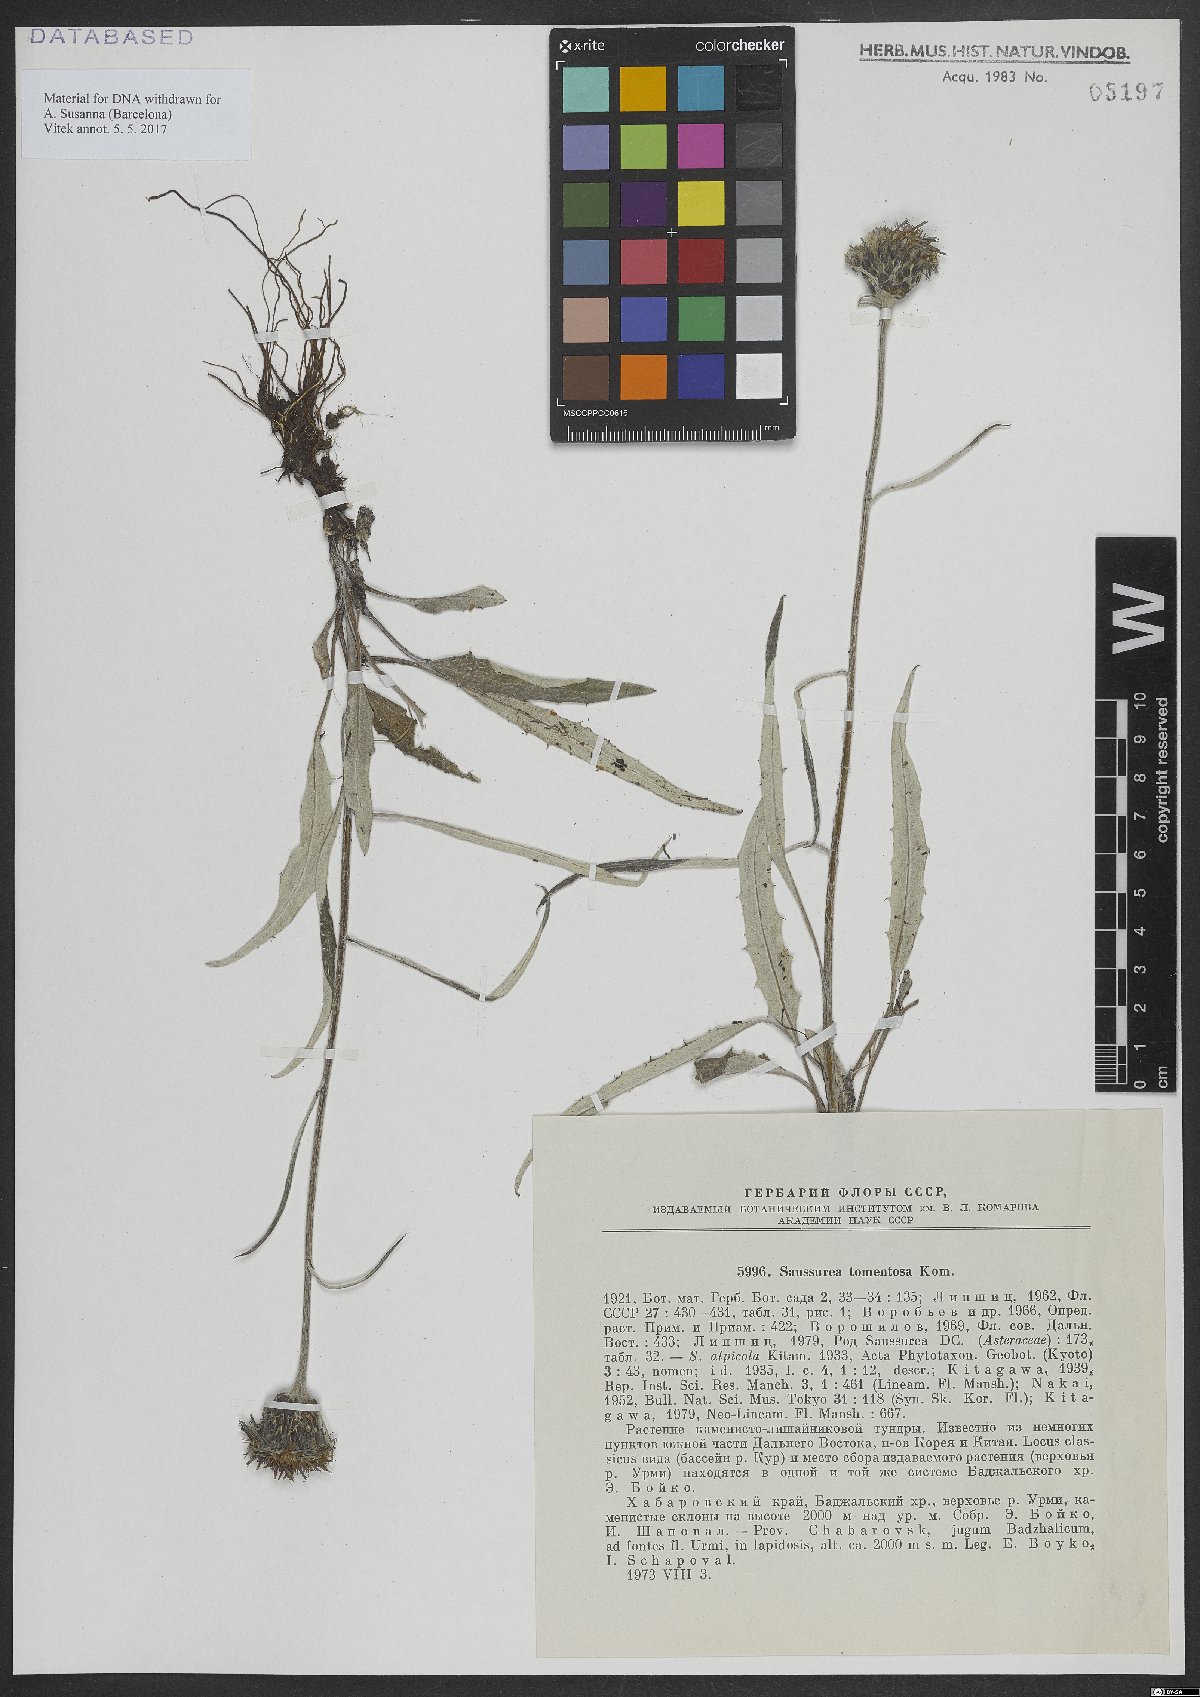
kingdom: Plantae
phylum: Tracheophyta
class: Magnoliopsida
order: Asterales
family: Asteraceae
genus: Saussurea
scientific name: Saussurea tomentosa
